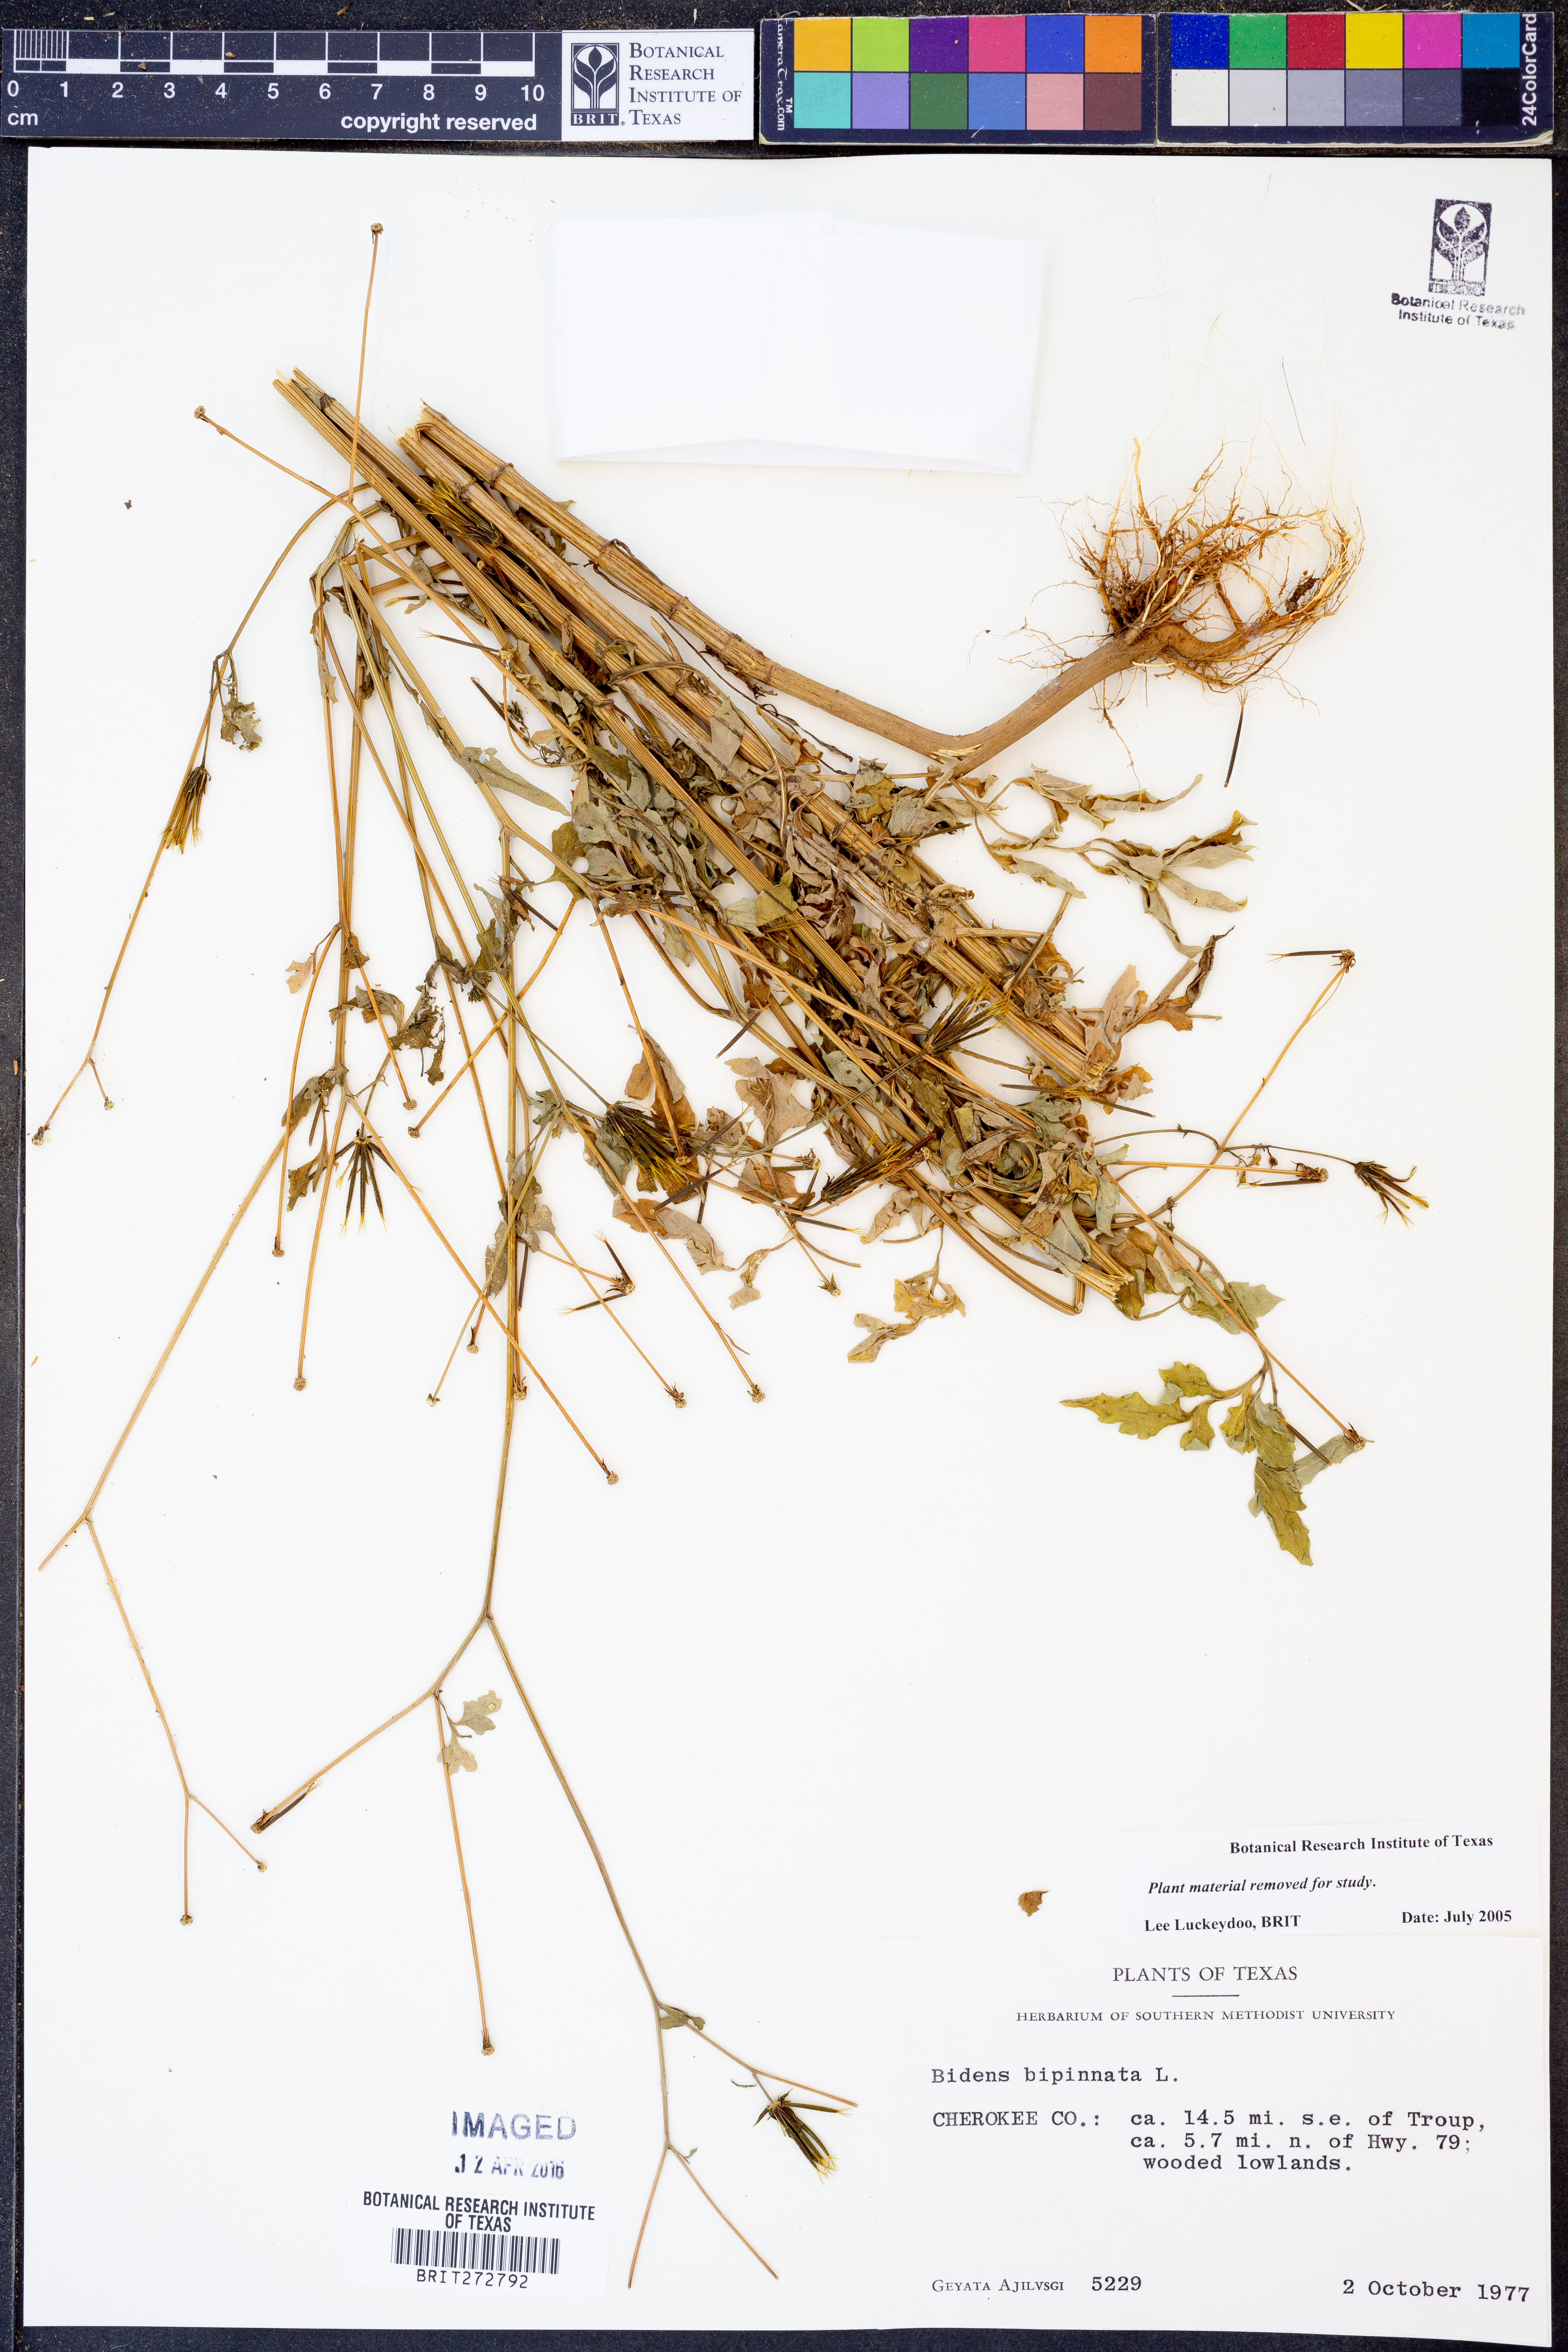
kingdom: Plantae
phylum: Tracheophyta
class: Magnoliopsida
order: Asterales
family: Asteraceae
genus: Bidens
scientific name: Bidens bipinnata
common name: Spanish-needles
